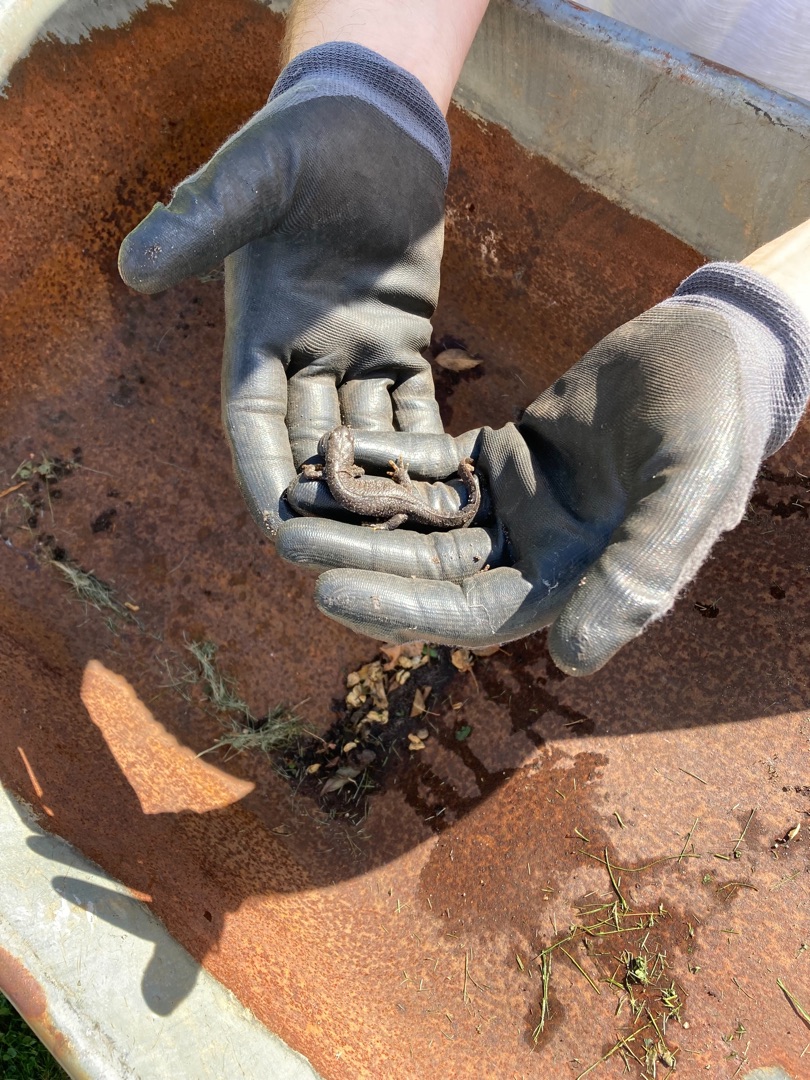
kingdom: Animalia
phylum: Chordata
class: Amphibia
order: Caudata
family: Salamandridae
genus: Triturus
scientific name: Triturus cristatus
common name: Stor vandsalamander
